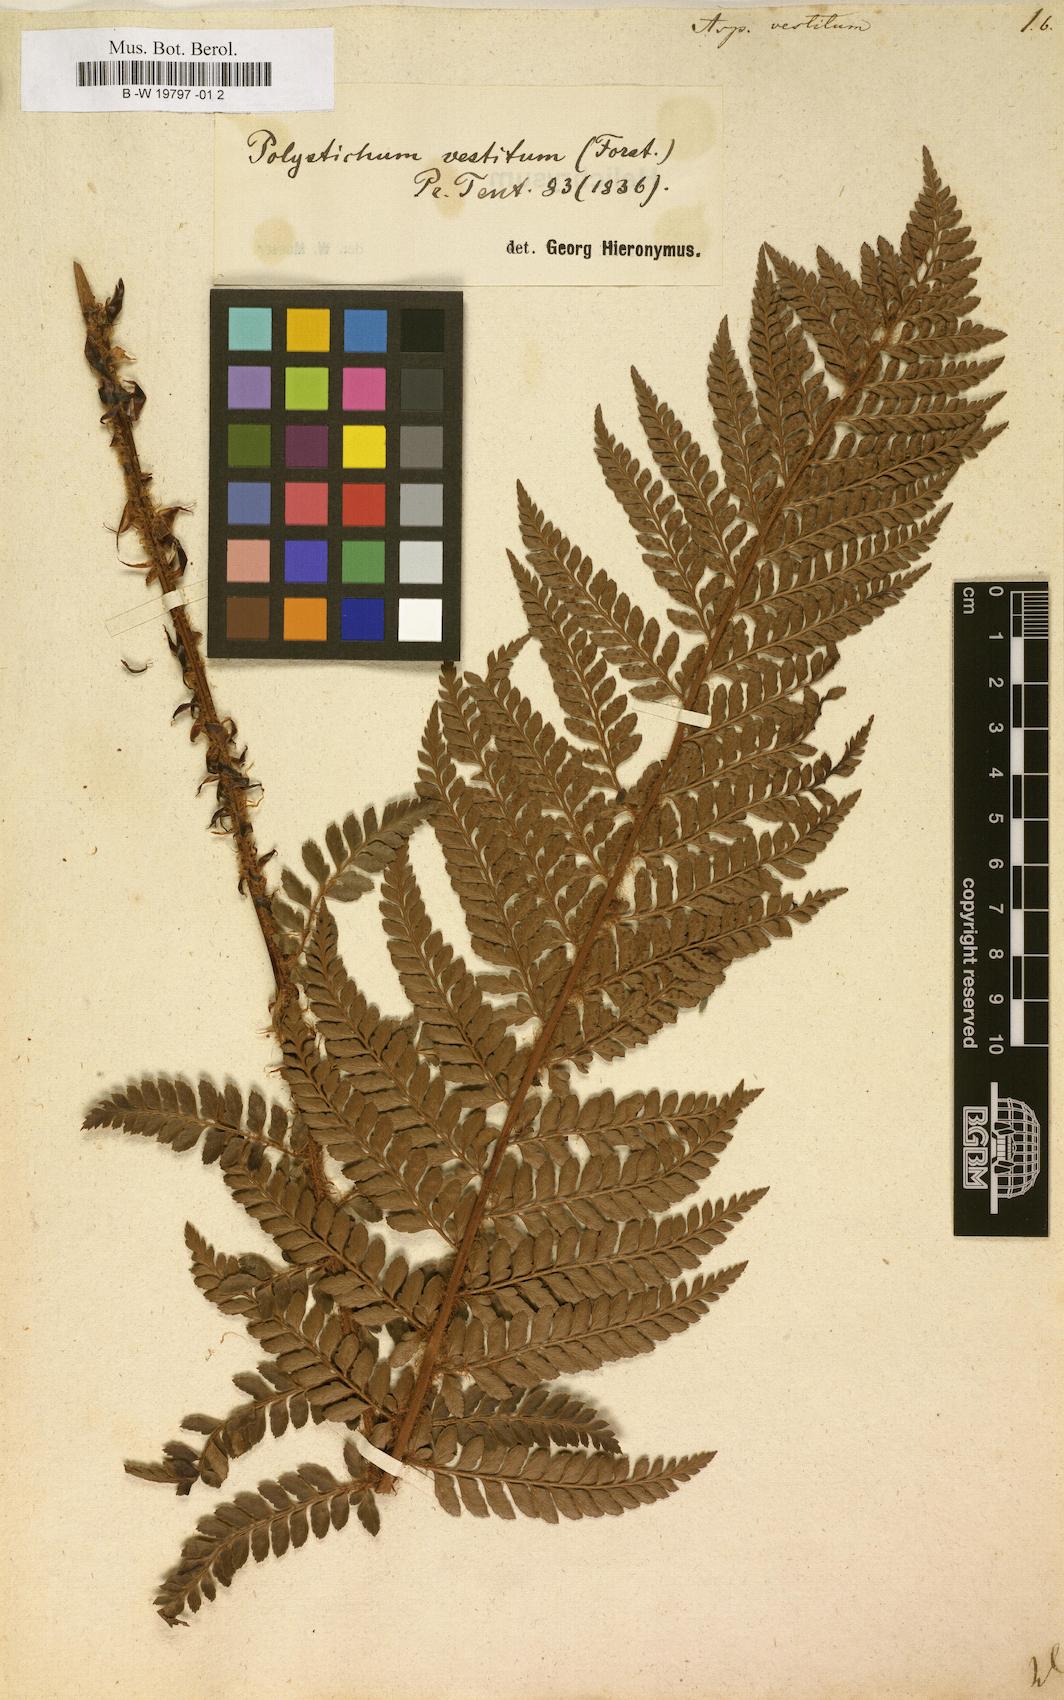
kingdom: Plantae
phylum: Tracheophyta
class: Polypodiopsida
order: Polypodiales
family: Dryopteridaceae
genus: Polystichum
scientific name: Polystichum vestitum
